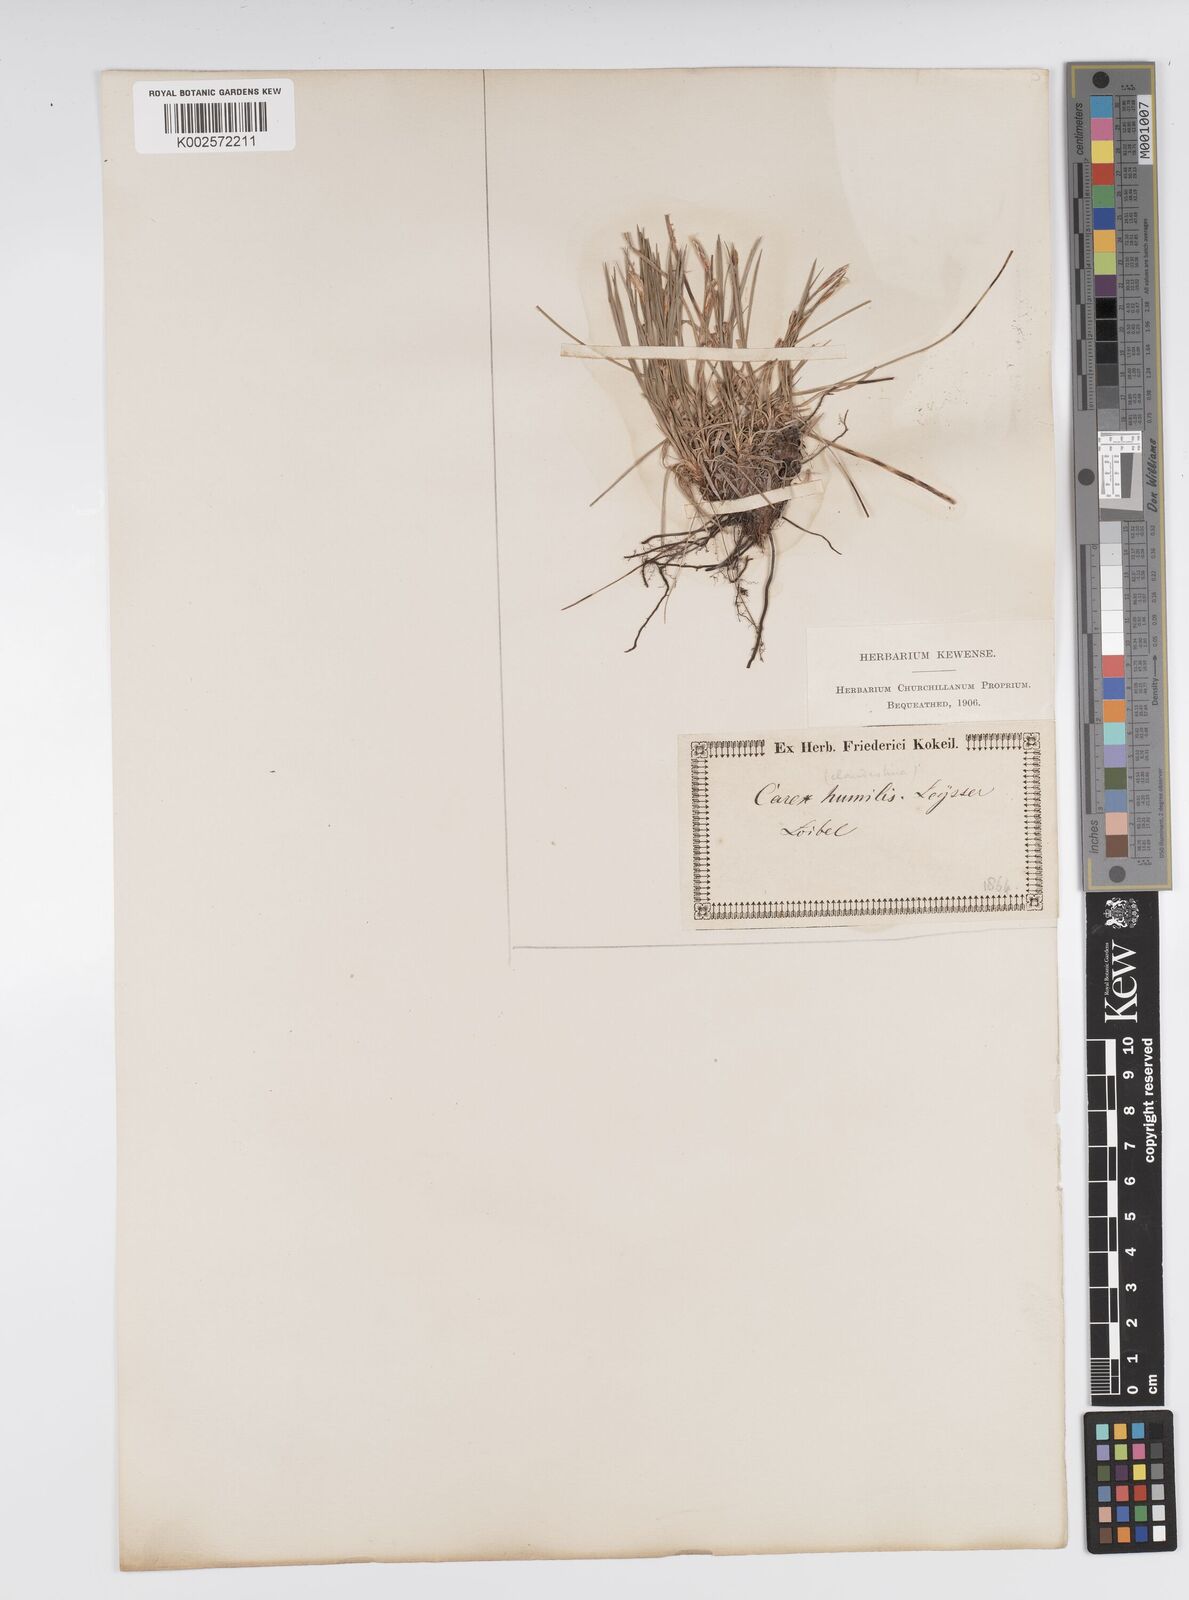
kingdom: Plantae
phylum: Tracheophyta
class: Liliopsida
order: Poales
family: Cyperaceae
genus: Carex
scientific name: Carex humilis
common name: Dwarf sedge
